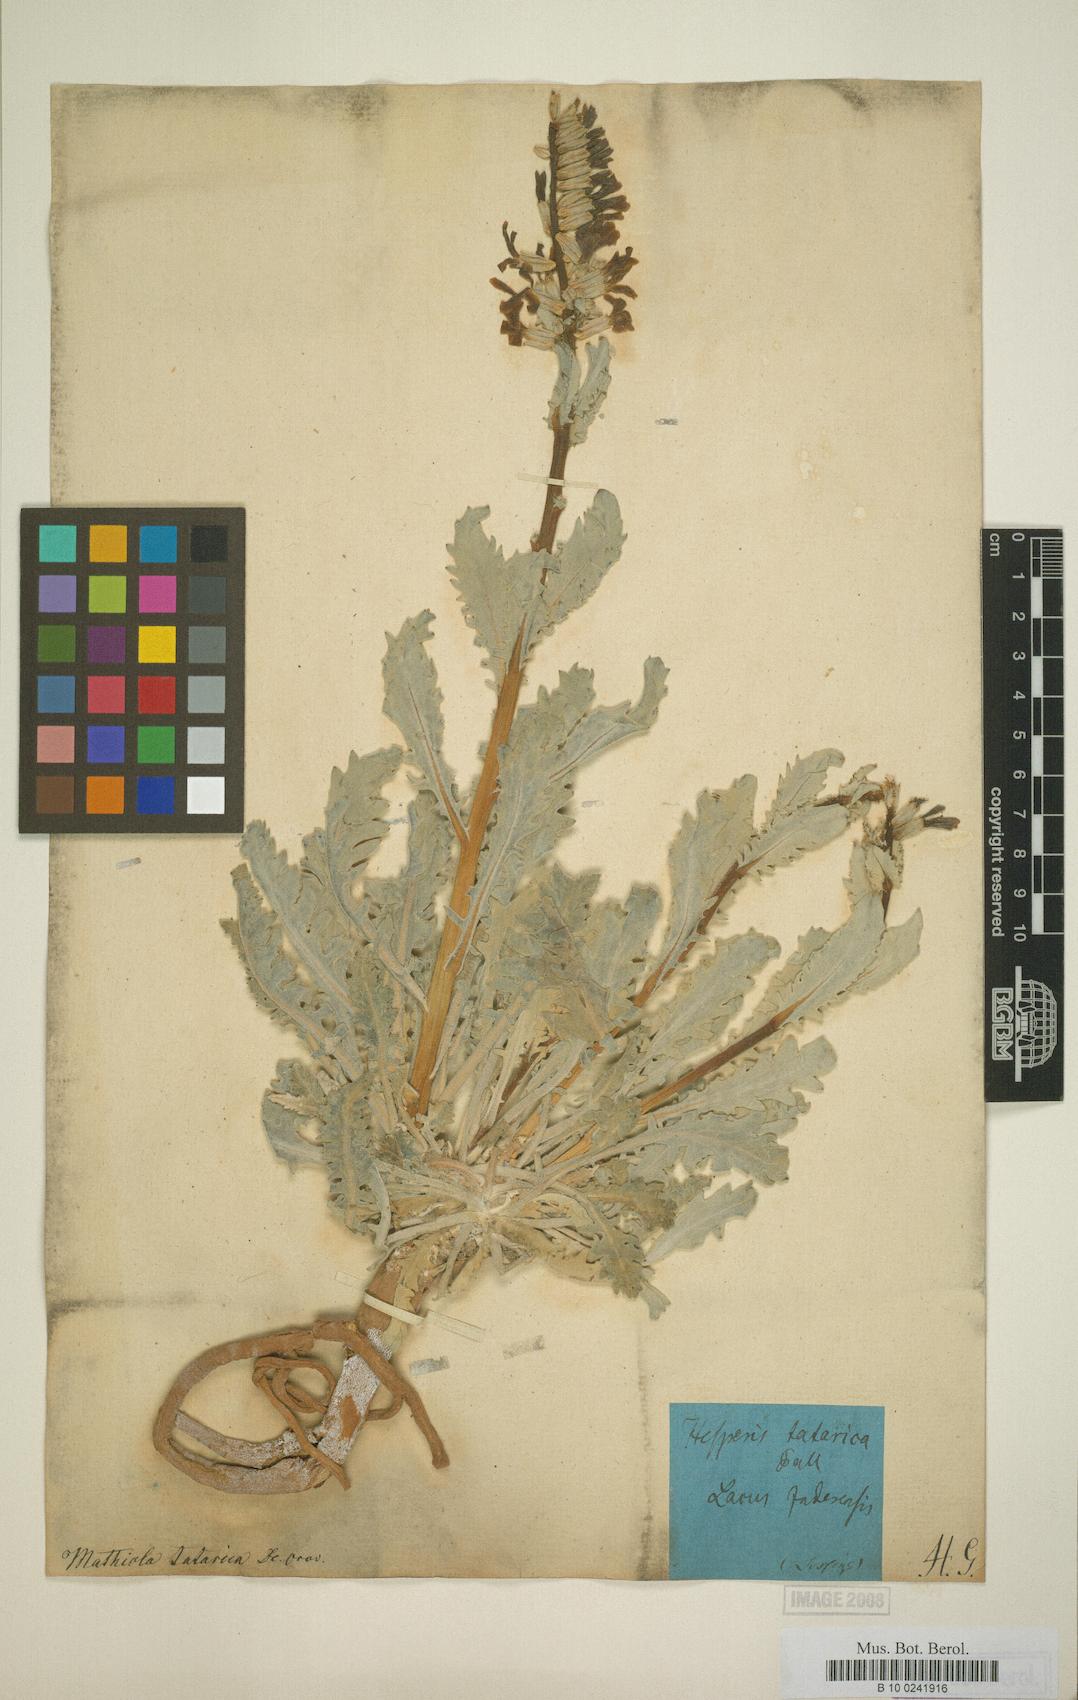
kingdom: Plantae
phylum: Tracheophyta
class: Magnoliopsida
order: Brassicales
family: Brassicaceae
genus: Matthiola
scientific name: Matthiola tatarica
